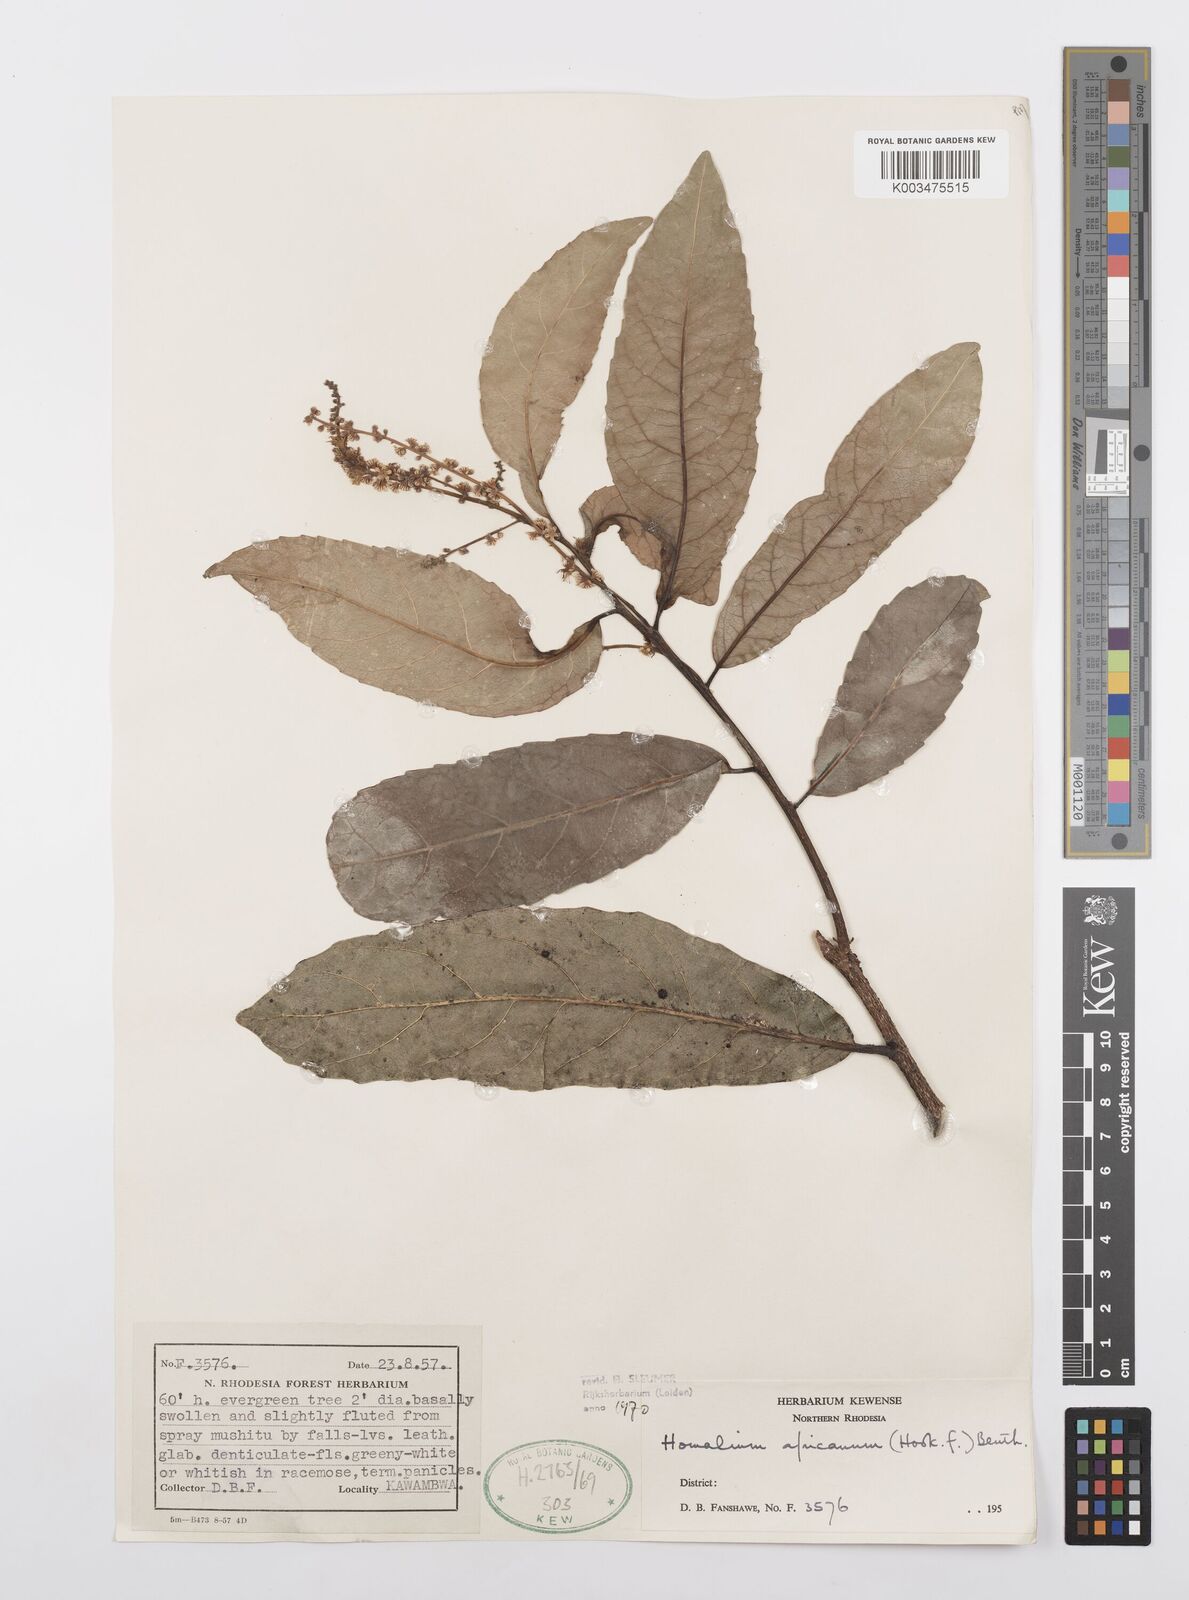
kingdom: Plantae
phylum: Tracheophyta
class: Magnoliopsida
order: Malpighiales
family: Salicaceae
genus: Homalium
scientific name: Homalium africanum
